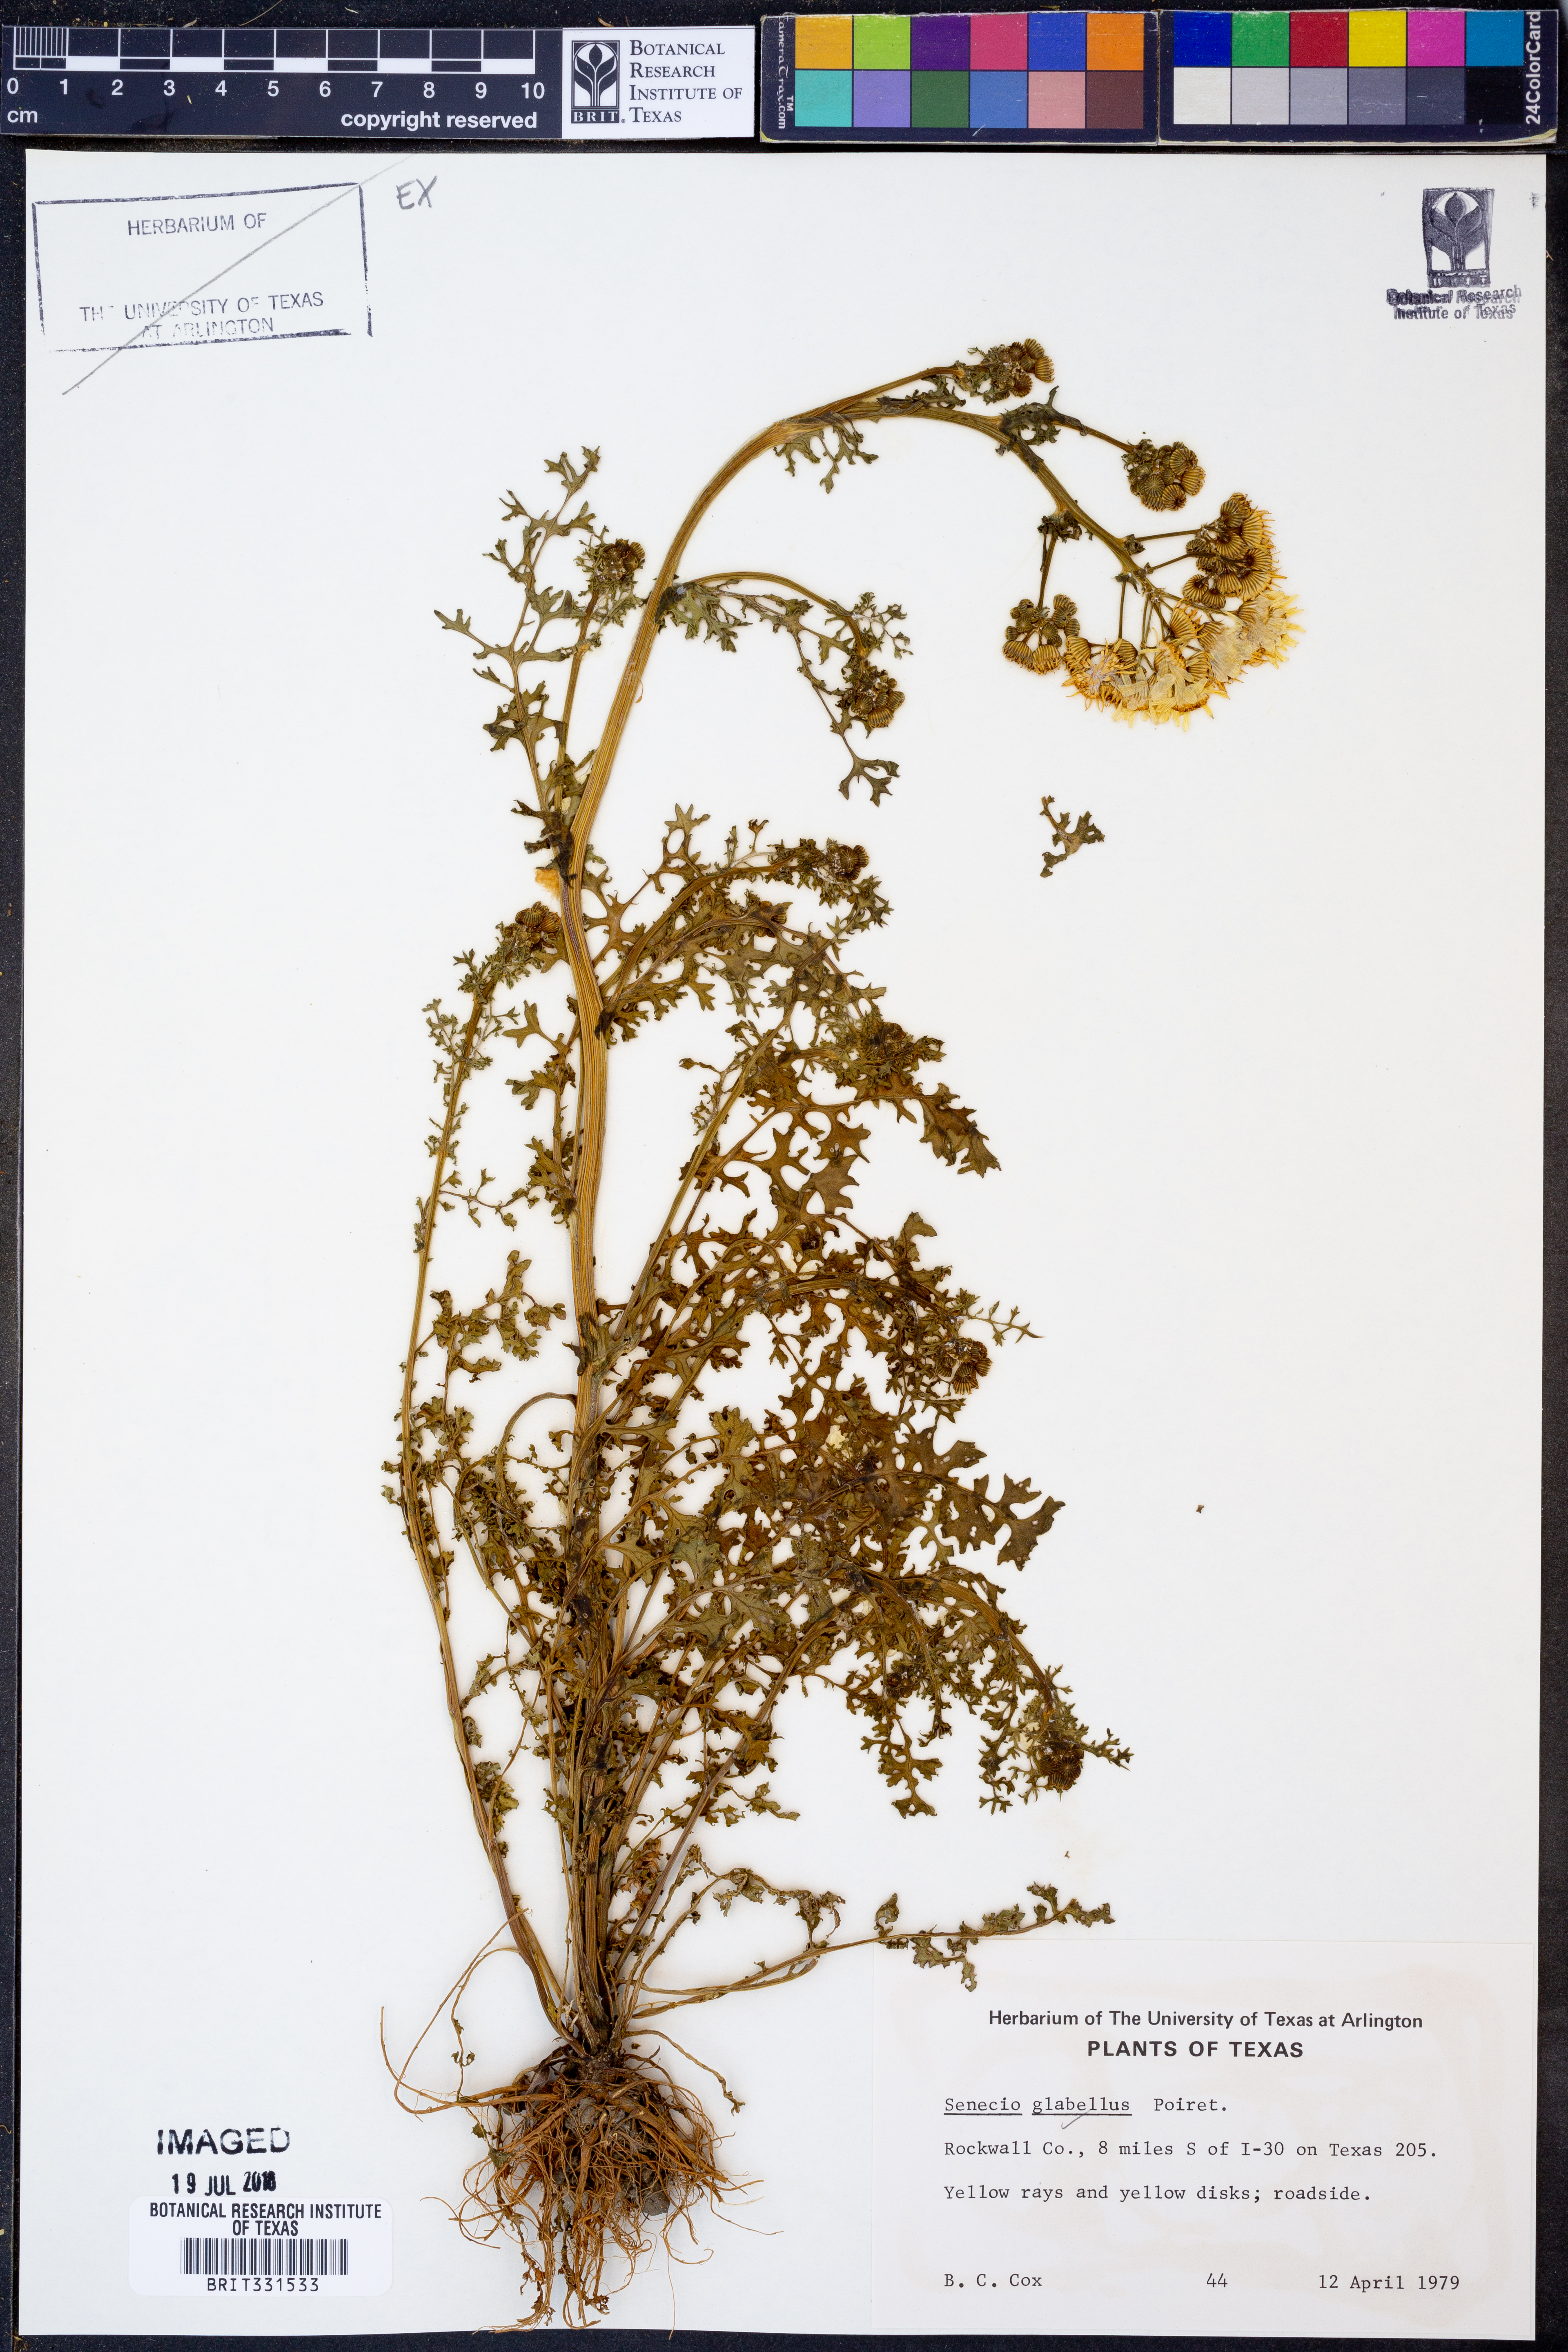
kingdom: Plantae
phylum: Tracheophyta
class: Magnoliopsida
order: Asterales
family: Asteraceae
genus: Tephroseris
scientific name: Tephroseris praticola
